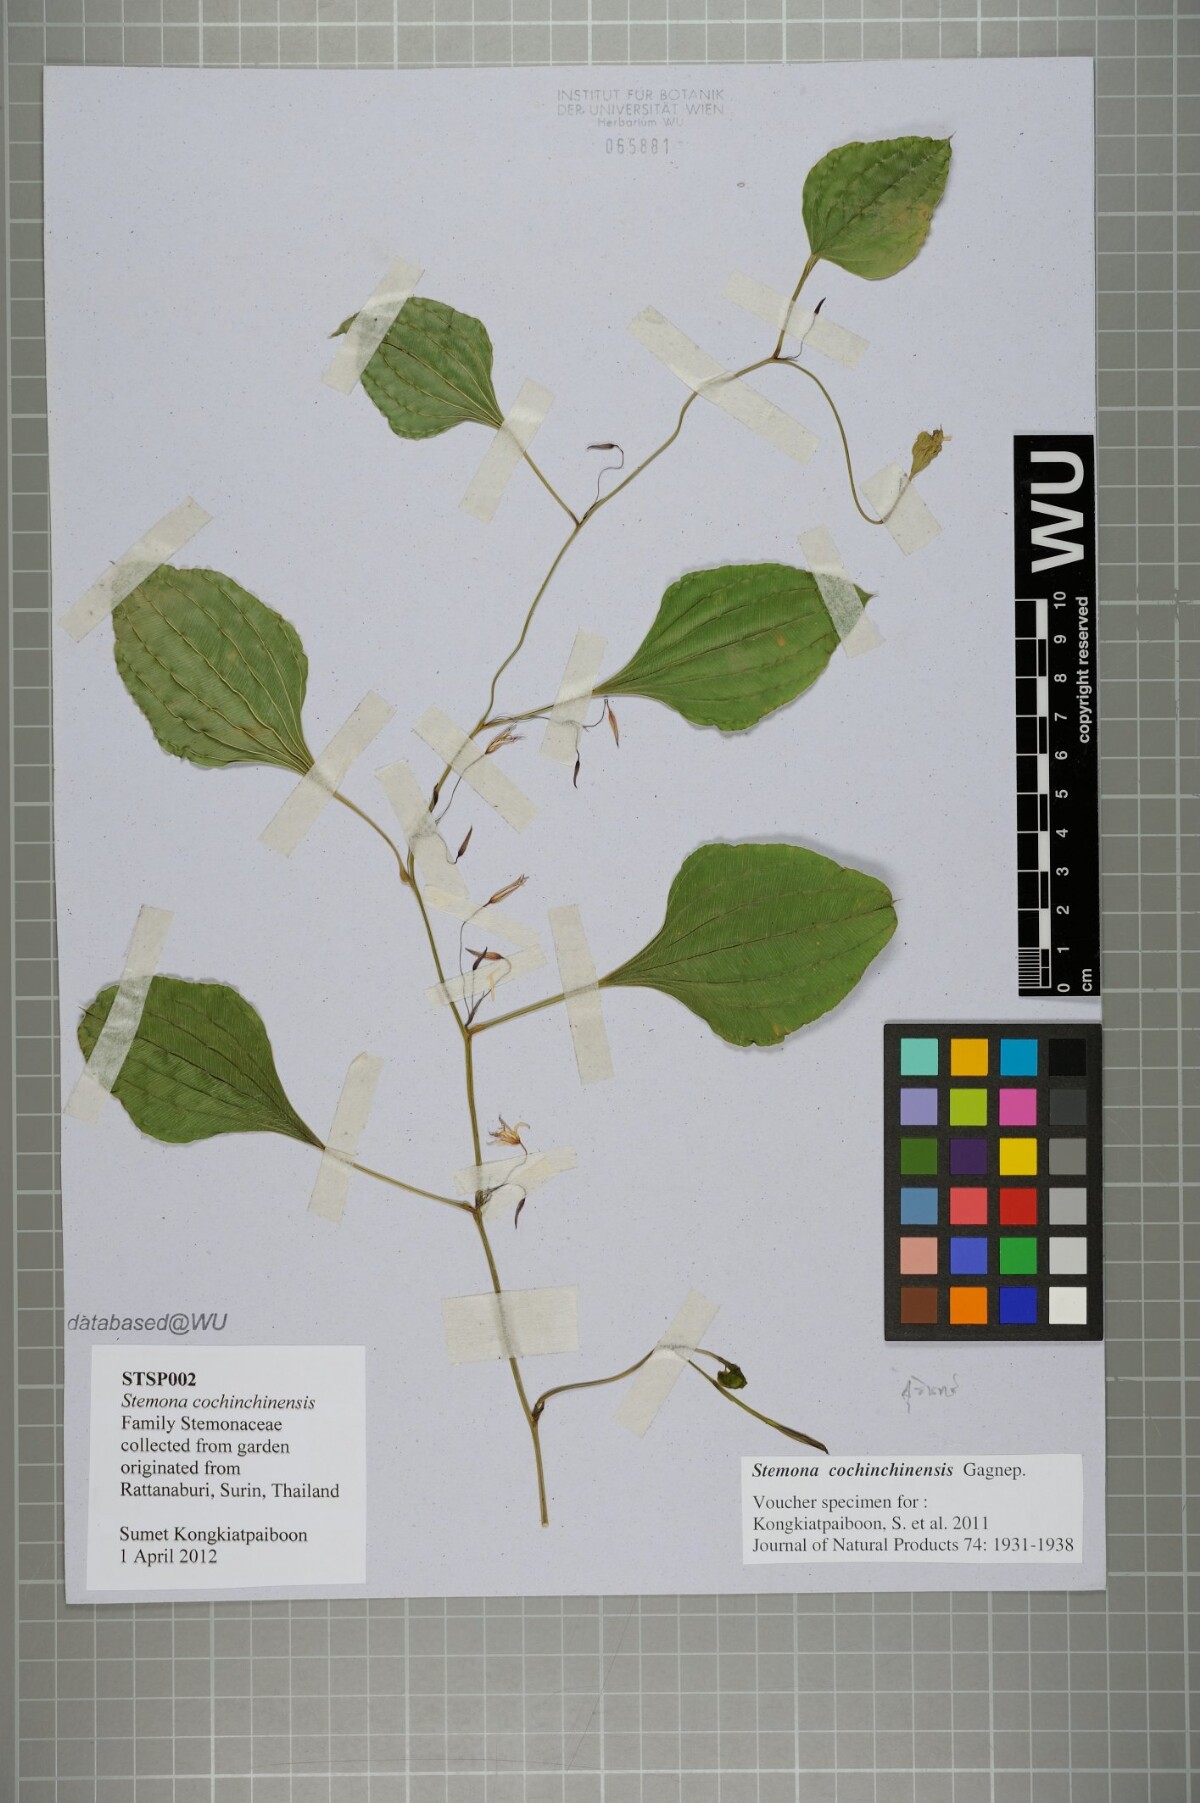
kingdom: Plantae
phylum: Tracheophyta
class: Liliopsida
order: Pandanales
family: Stemonaceae
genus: Stemona
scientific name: Stemona cochinchinensis
